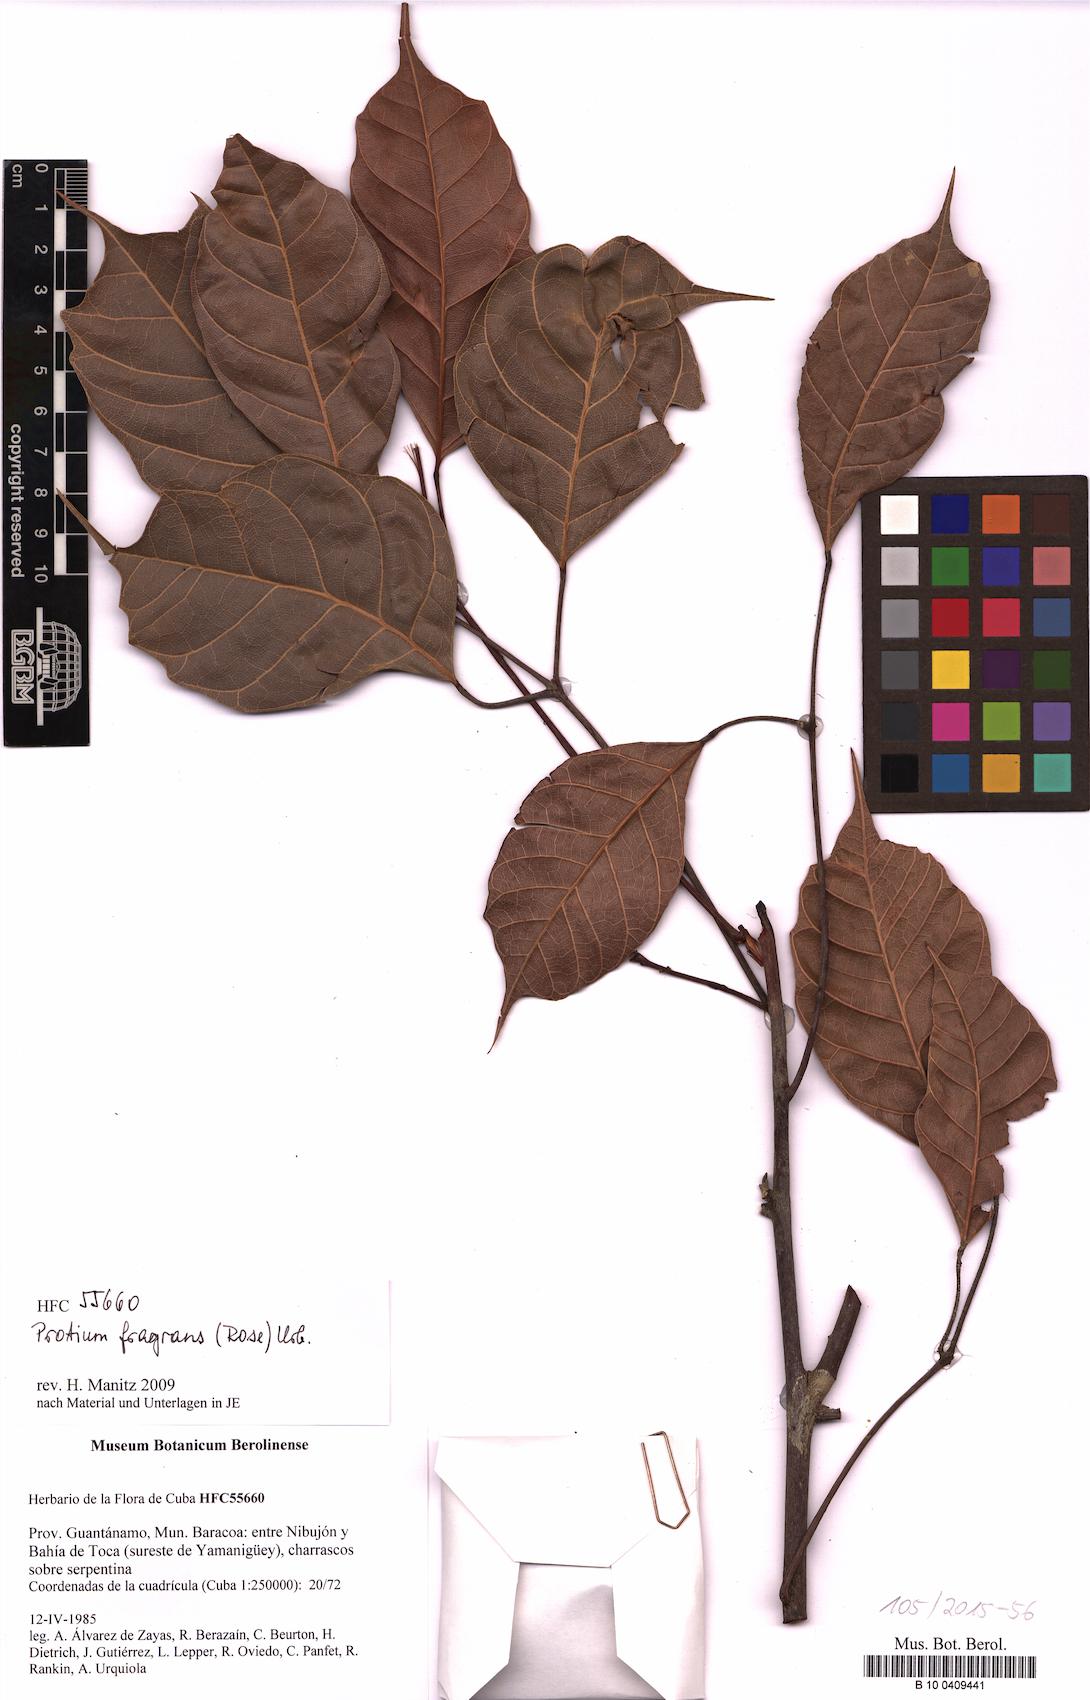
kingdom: Plantae
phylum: Tracheophyta
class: Magnoliopsida
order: Sapindales
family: Burseraceae
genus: Protium
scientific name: Protium fragrans
